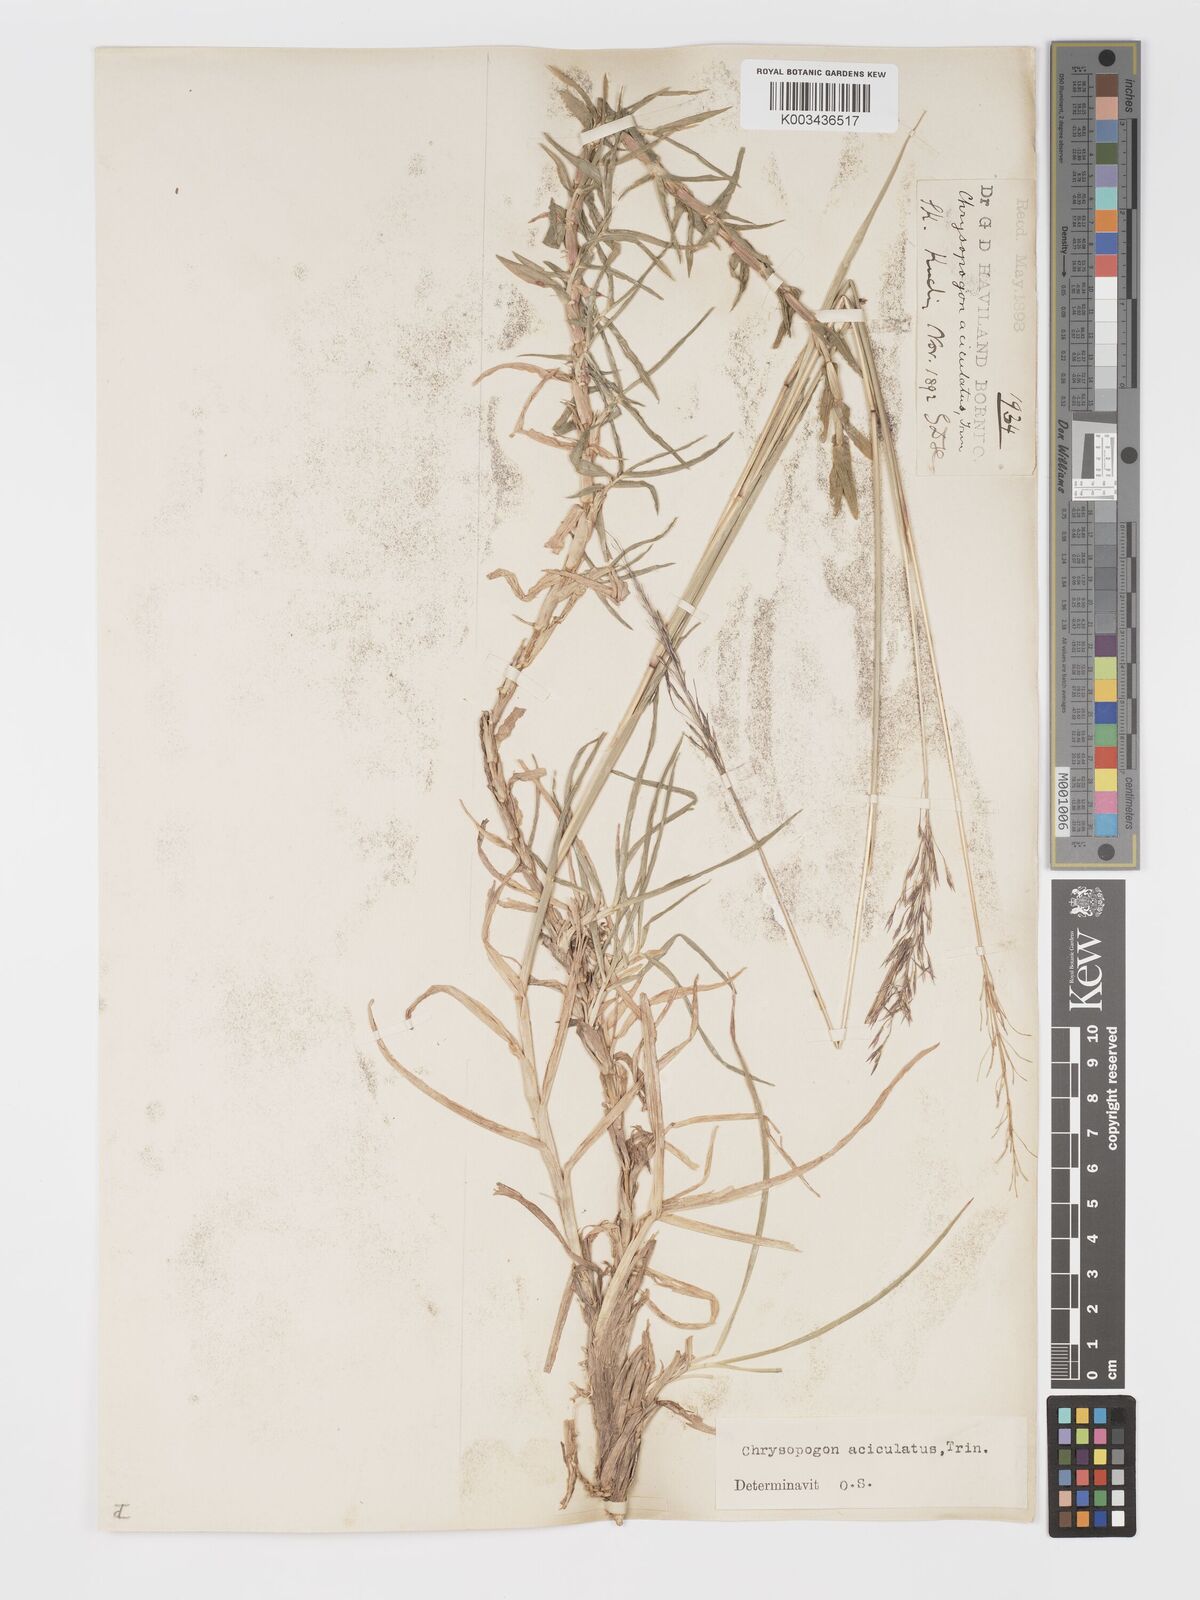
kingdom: Plantae
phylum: Tracheophyta
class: Liliopsida
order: Poales
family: Poaceae
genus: Chrysopogon
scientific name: Chrysopogon aciculatus
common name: Pilipiliula
